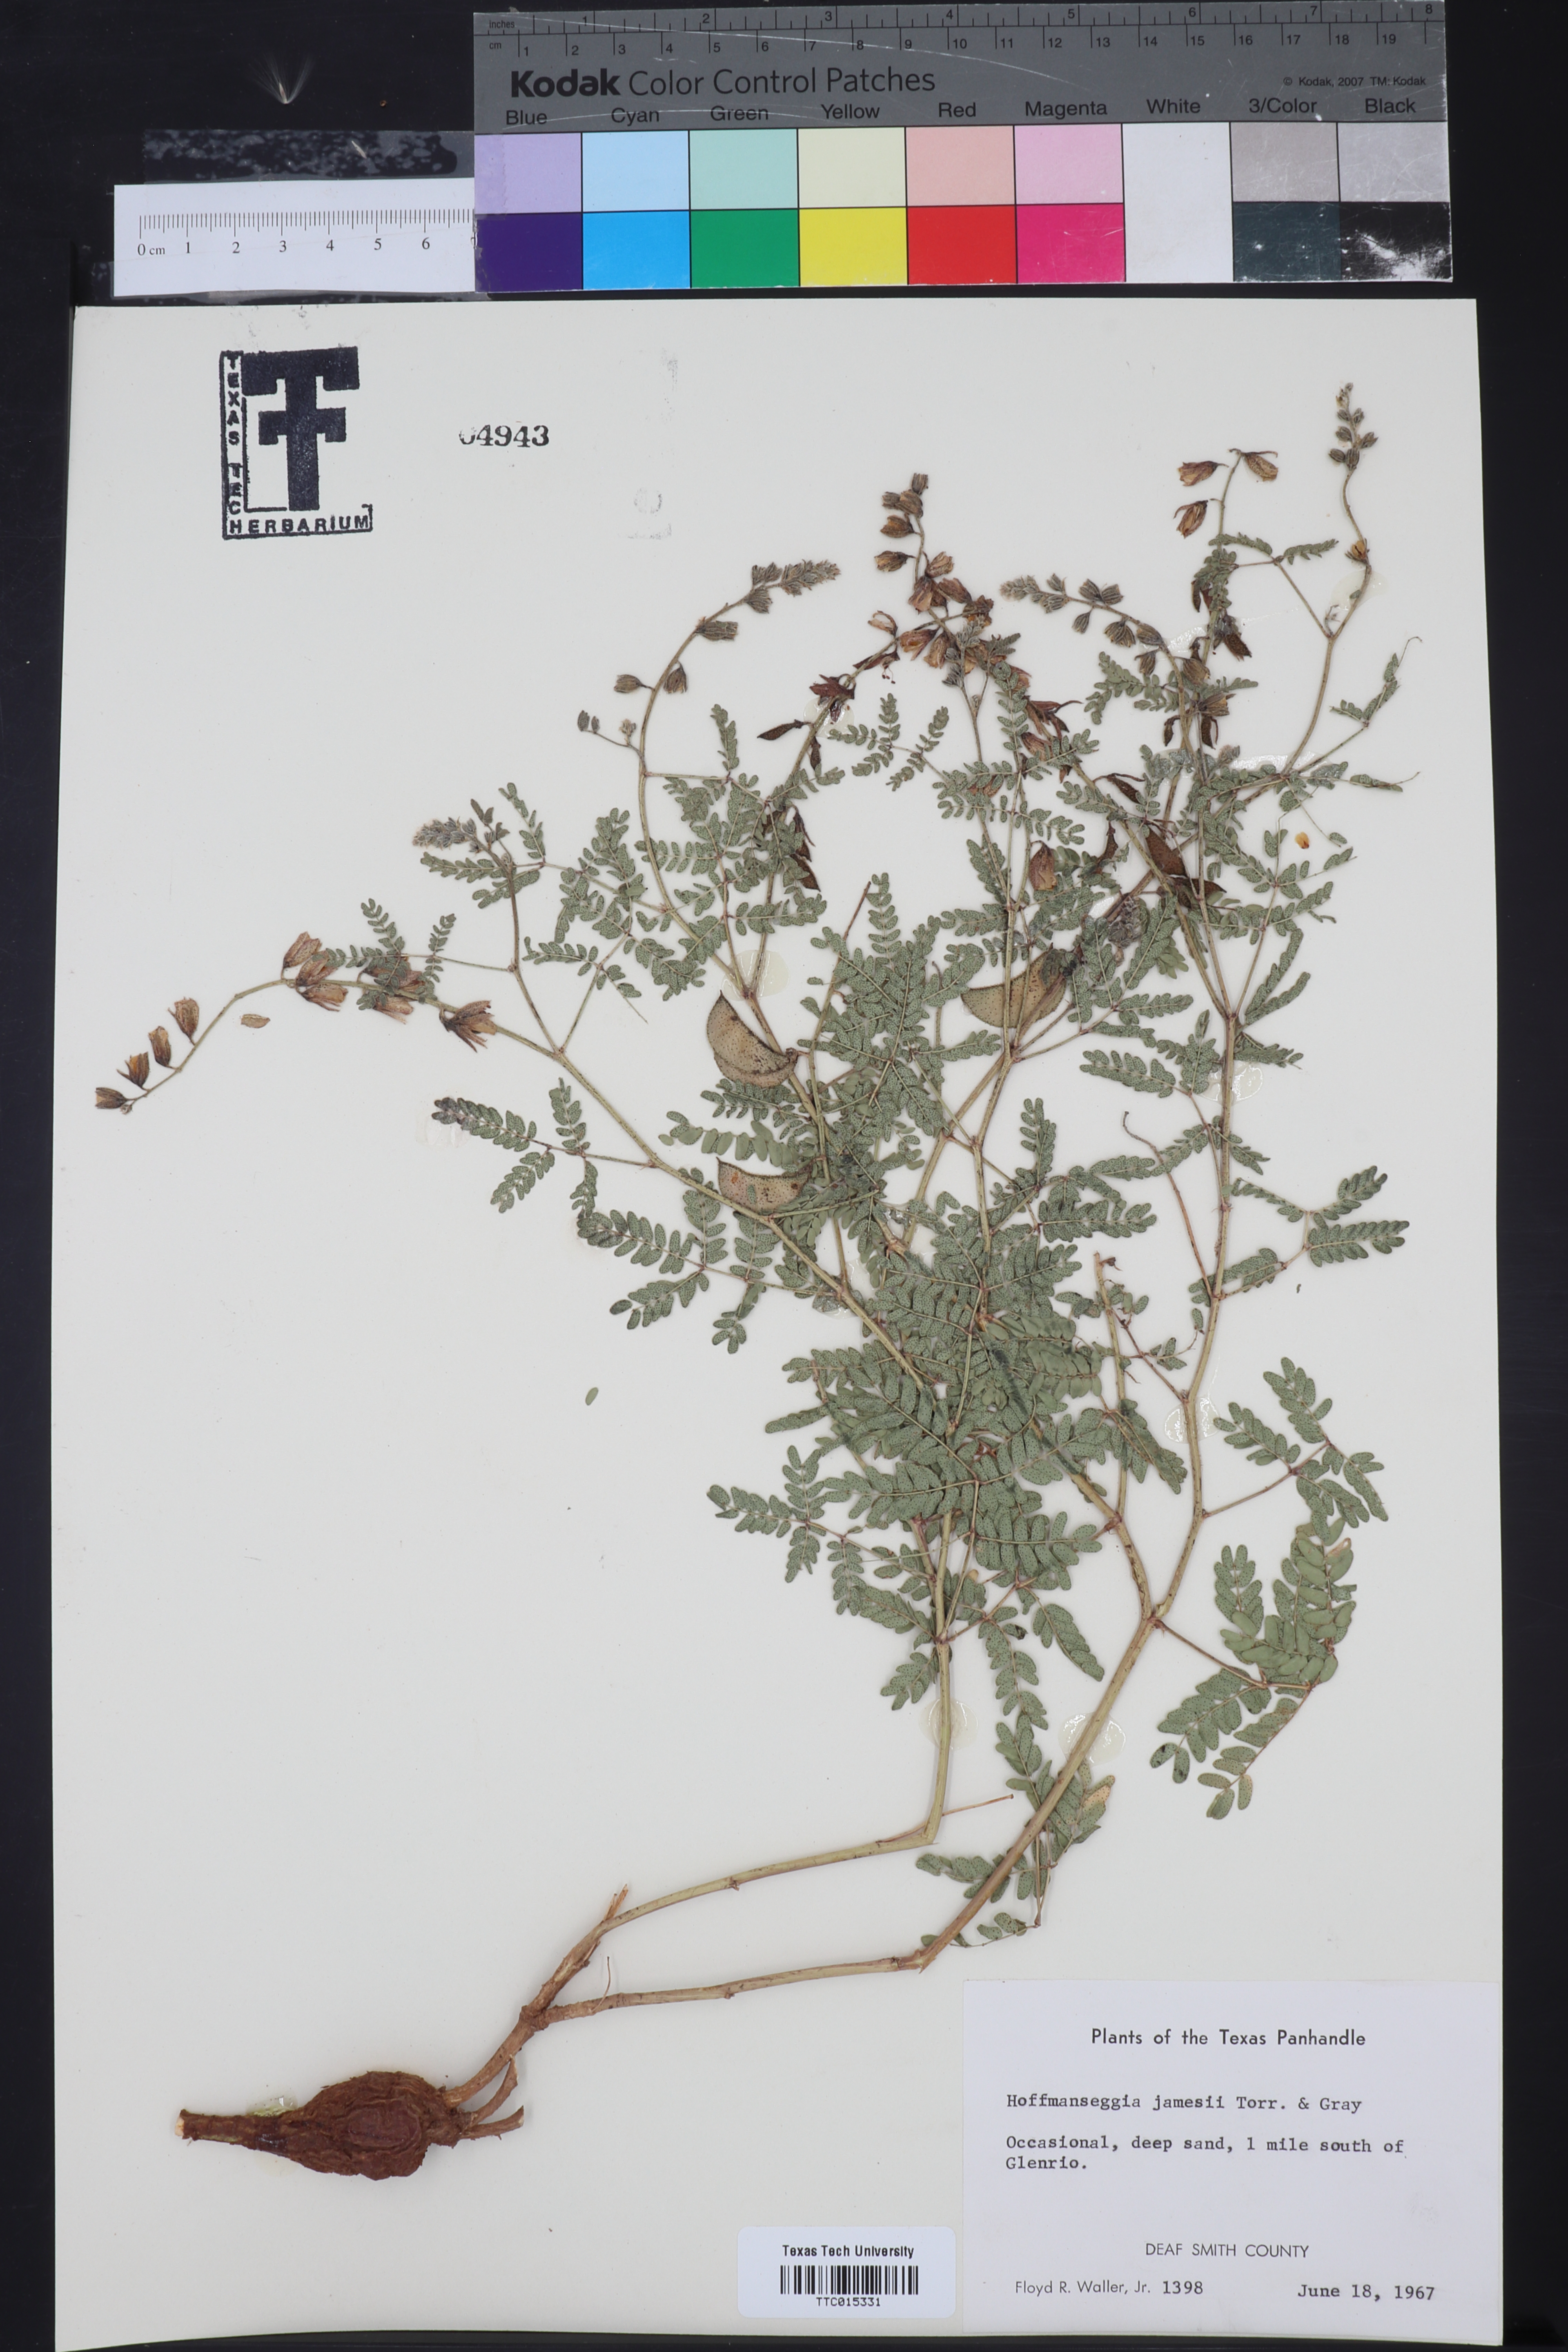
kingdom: Plantae
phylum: Tracheophyta
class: Magnoliopsida
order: Fabales
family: Fabaceae
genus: Pomaria
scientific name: Pomaria jamesii
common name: James' caesalpinia
